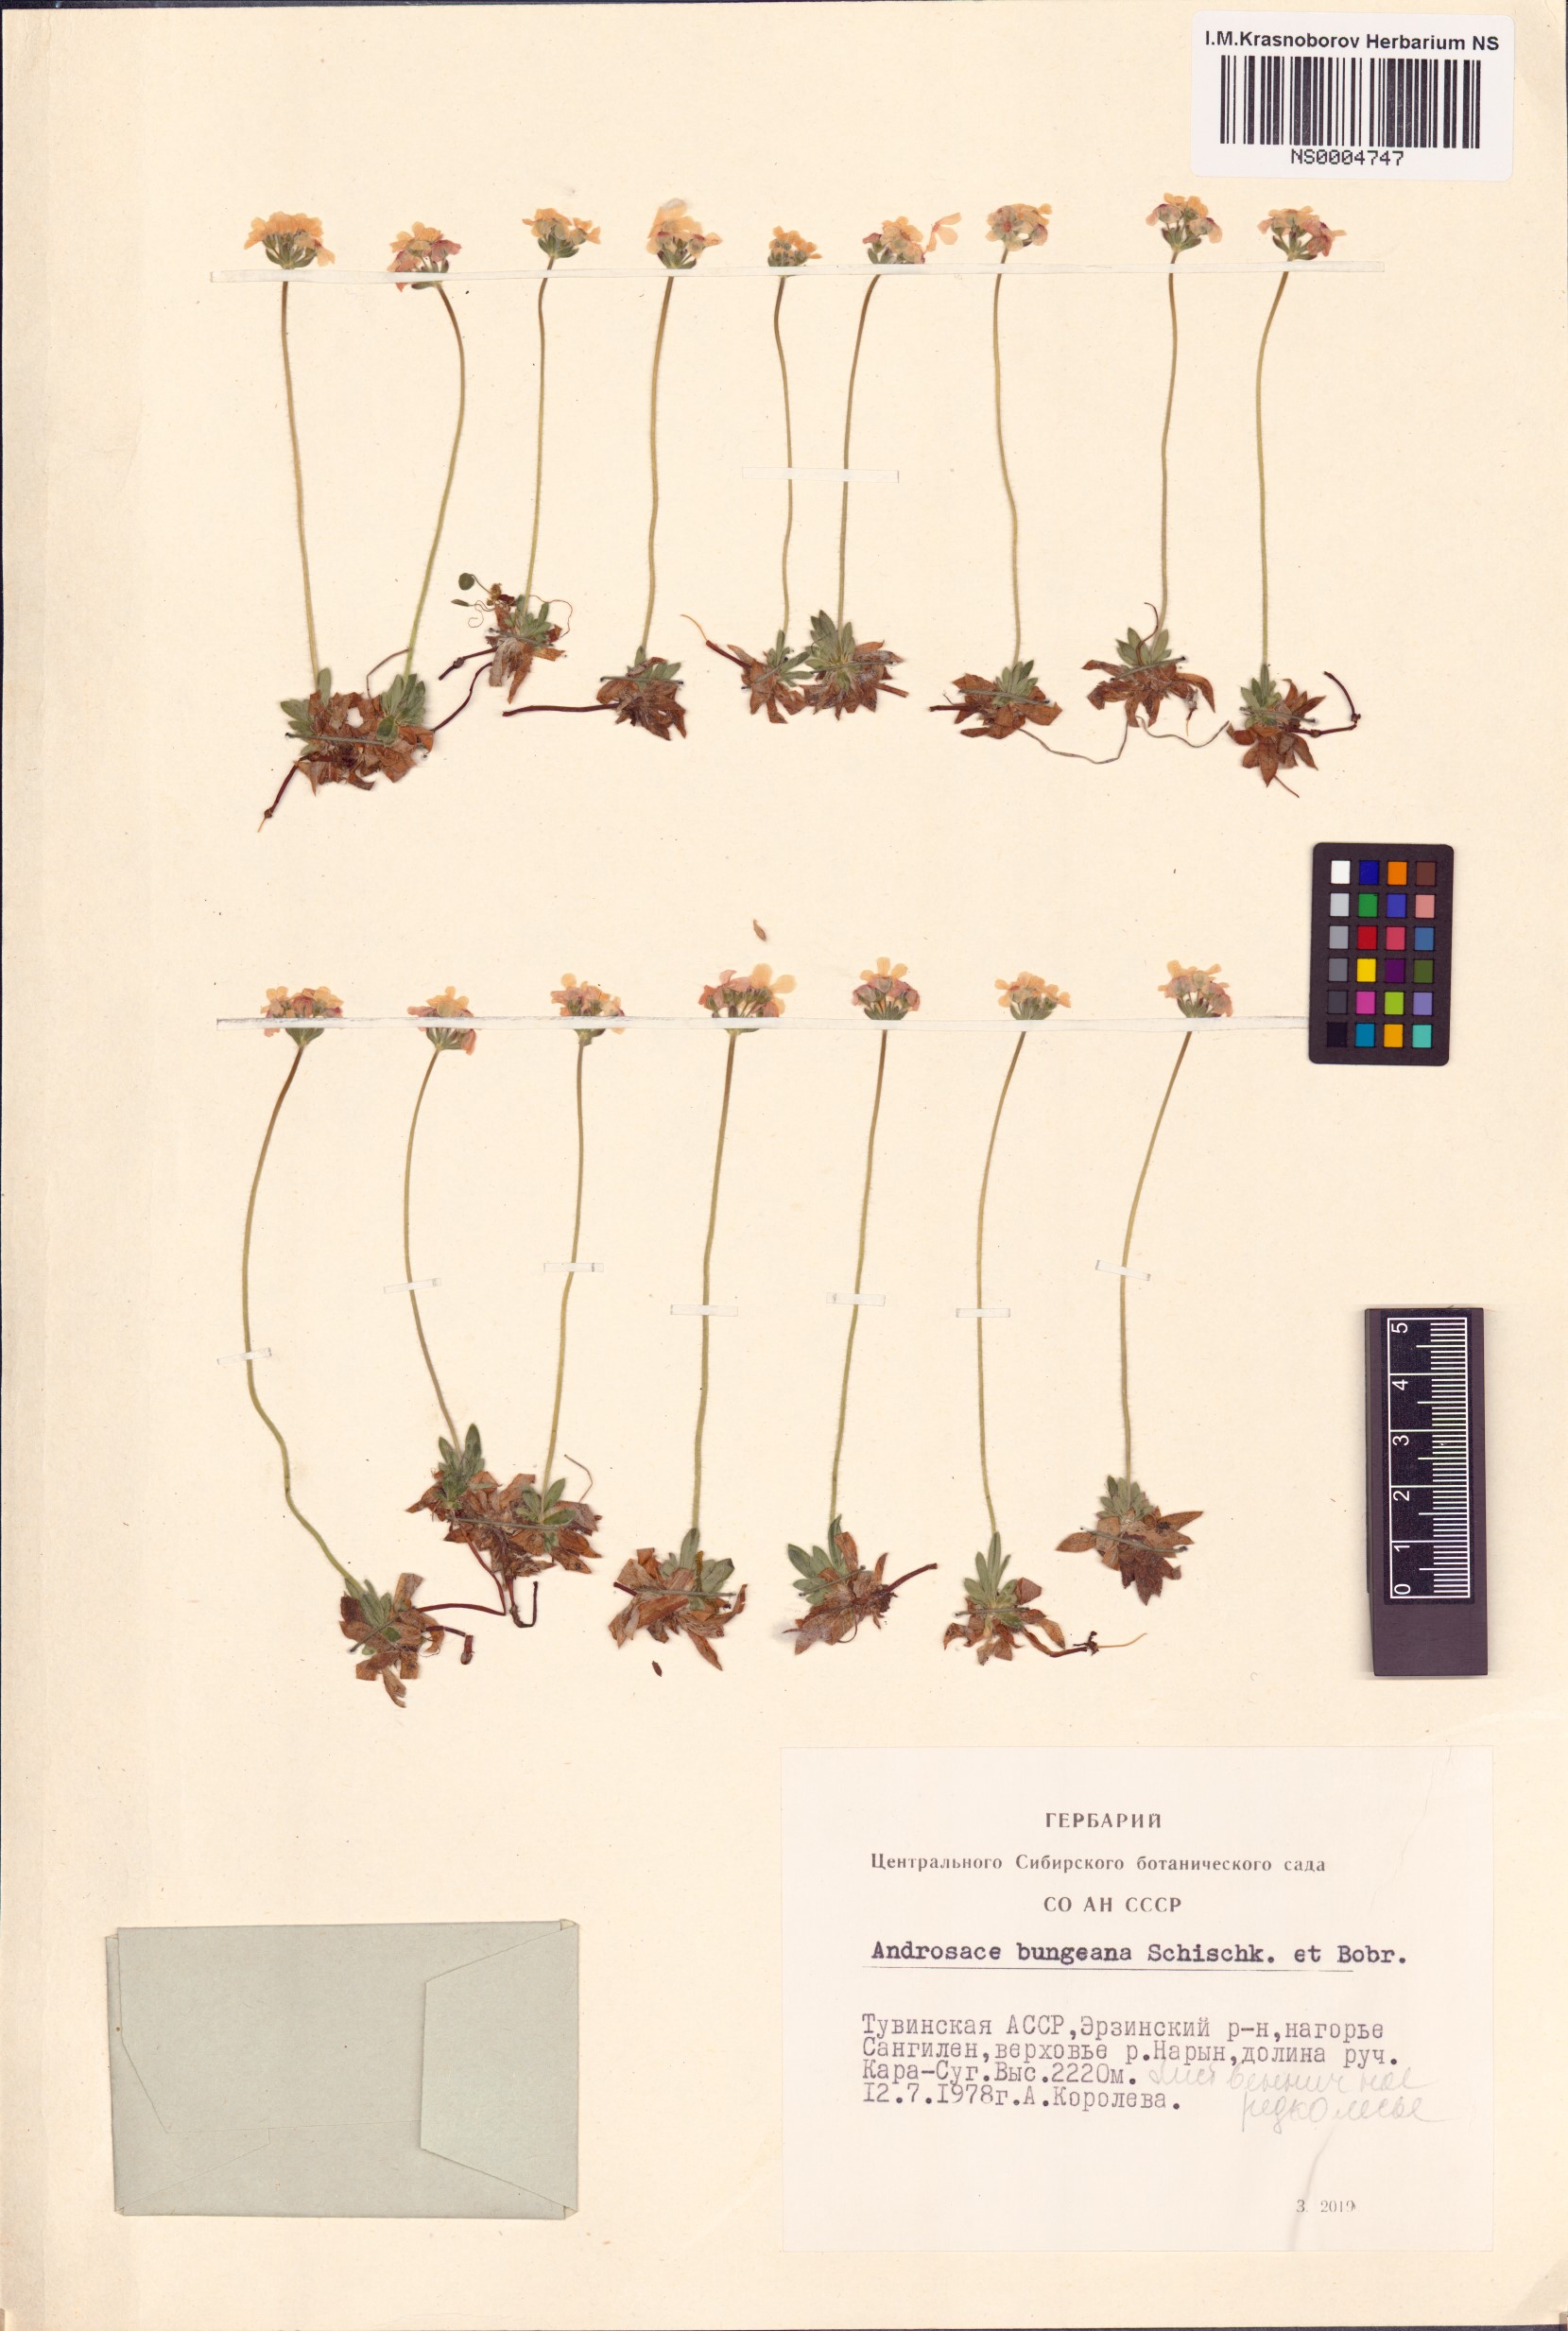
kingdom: Plantae
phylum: Tracheophyta
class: Magnoliopsida
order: Ericales
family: Primulaceae
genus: Lysimachia
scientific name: Lysimachia maritima
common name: Sea milkwort
